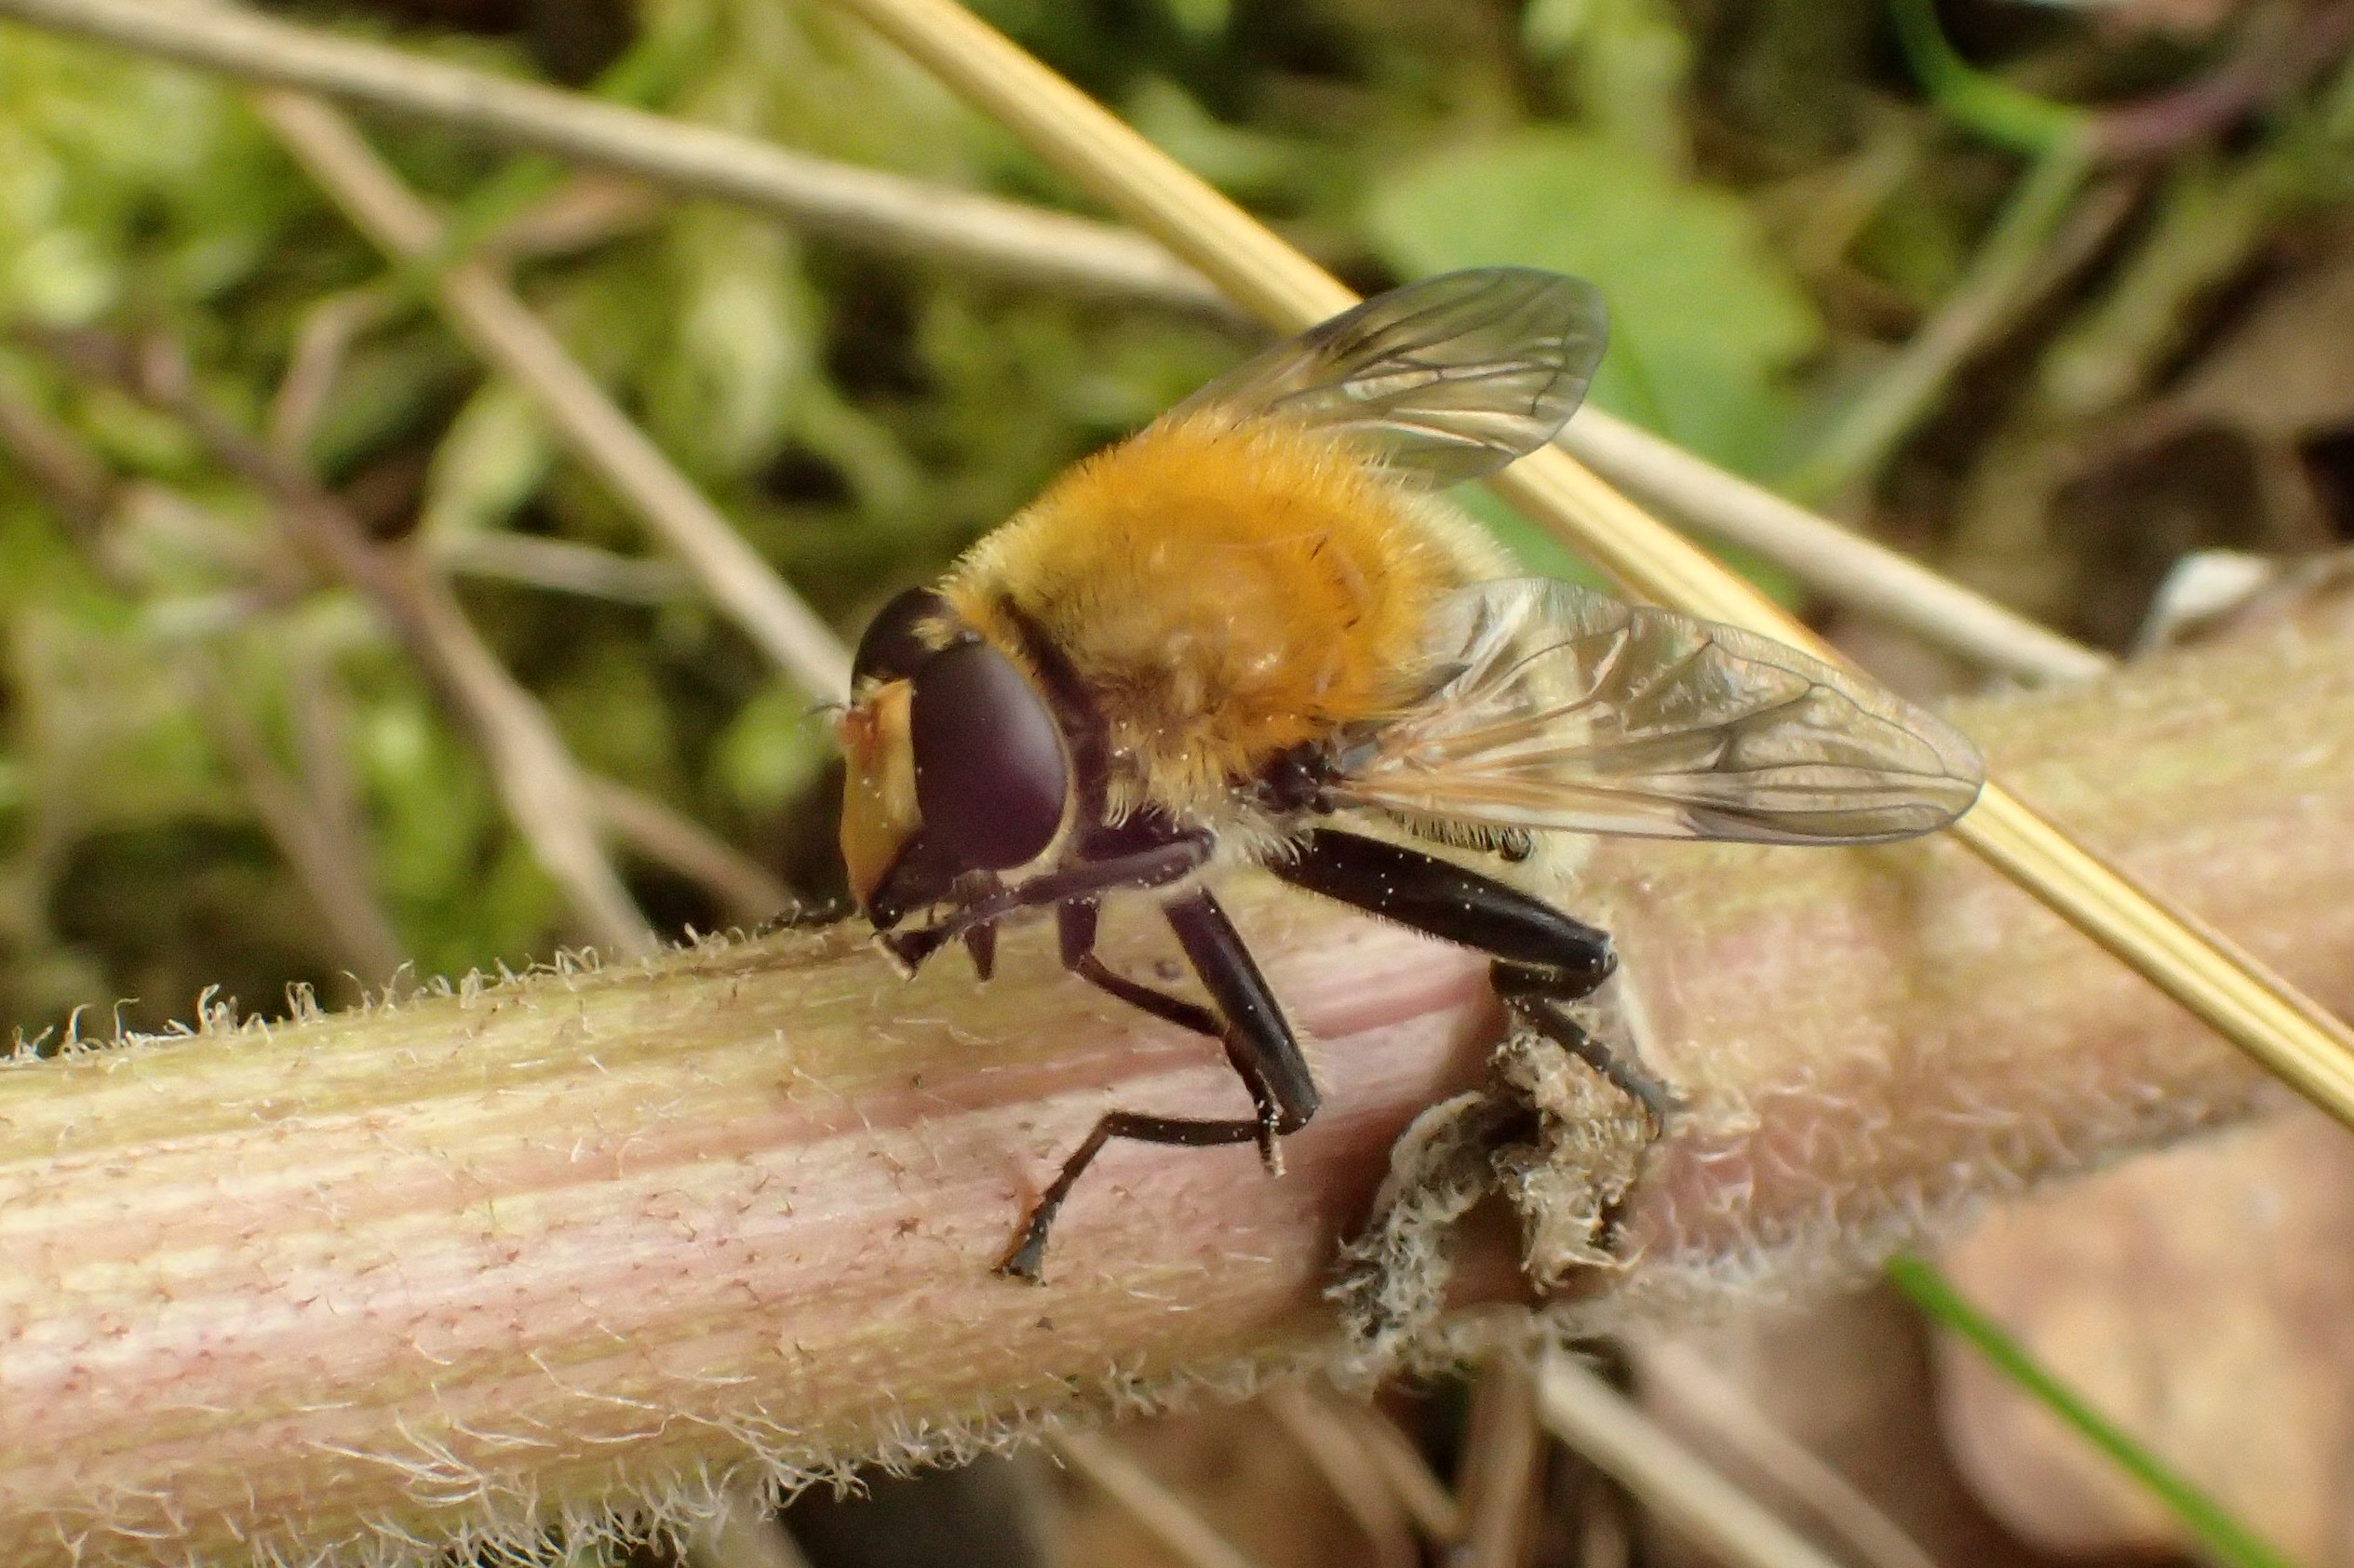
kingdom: Animalia
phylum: Arthropoda
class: Insecta
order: Diptera
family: Syrphidae
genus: Sericomyia
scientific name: Sericomyia superbiens
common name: Brun bjørnesvirreflue
